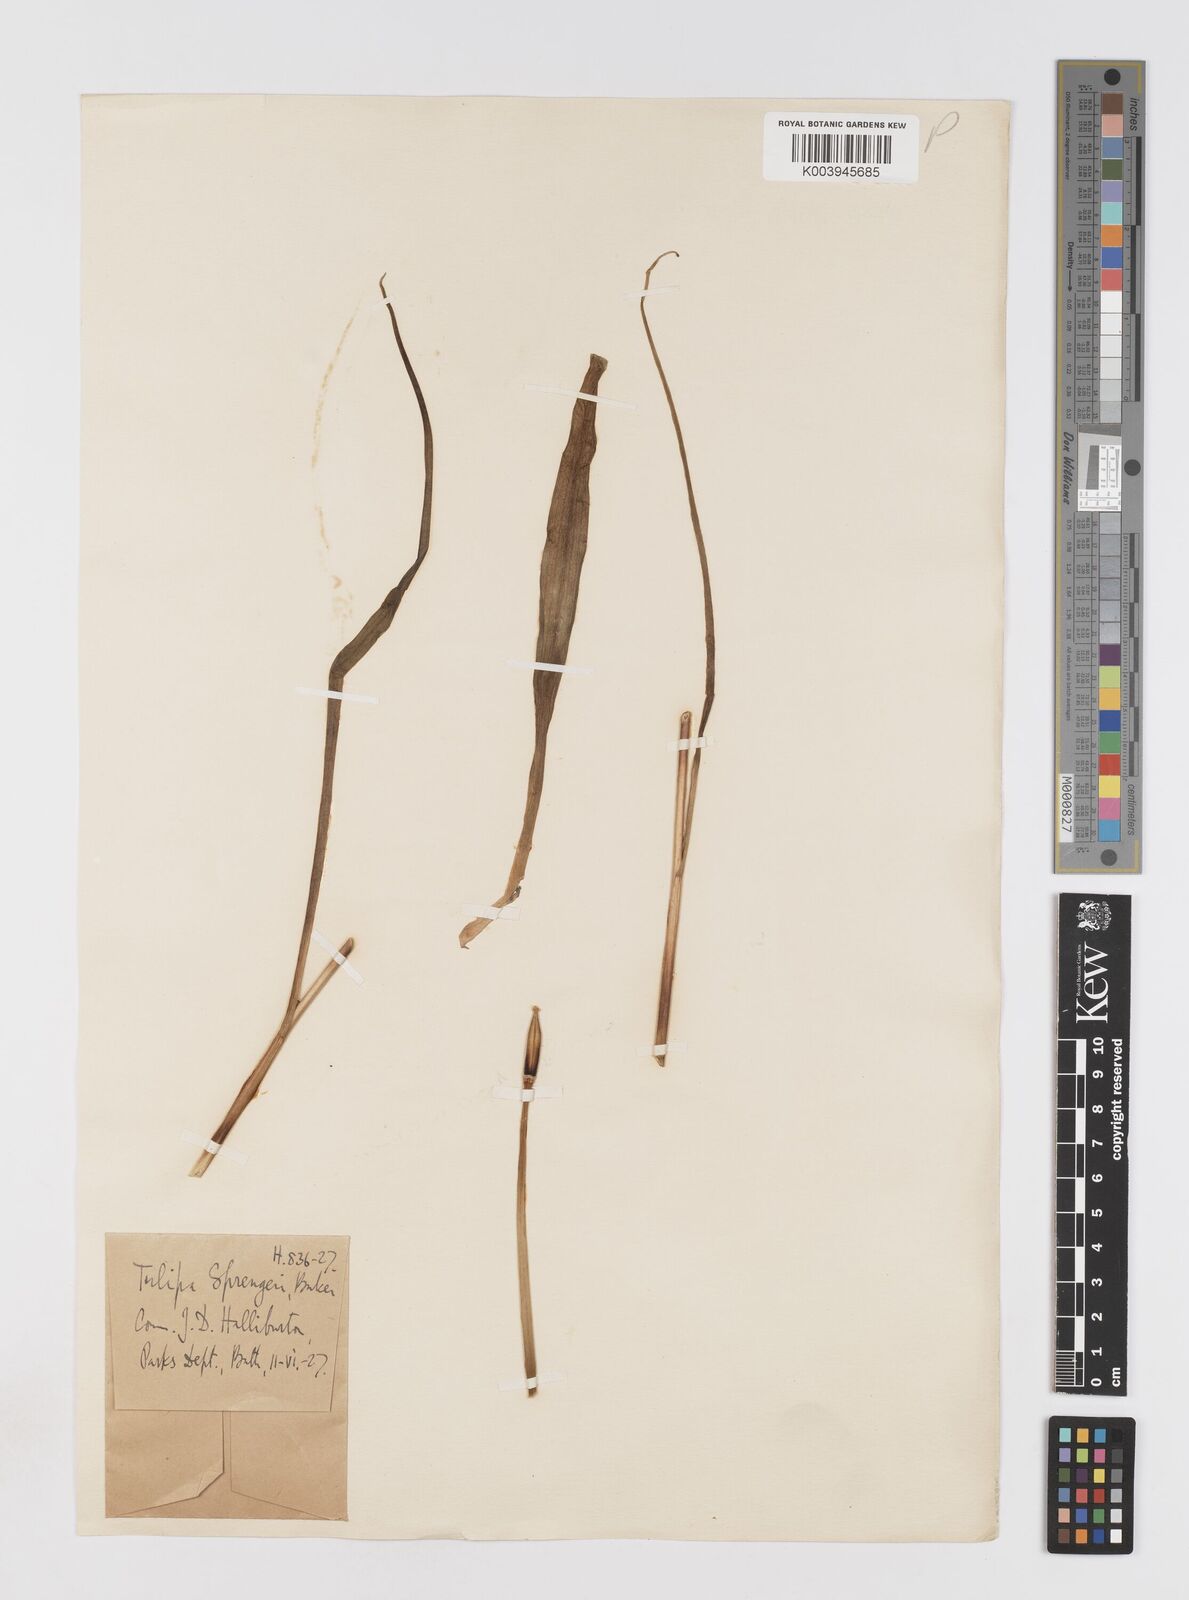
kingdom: Plantae
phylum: Tracheophyta
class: Liliopsida
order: Liliales
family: Liliaceae
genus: Tulipa
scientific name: Tulipa sprengeri
